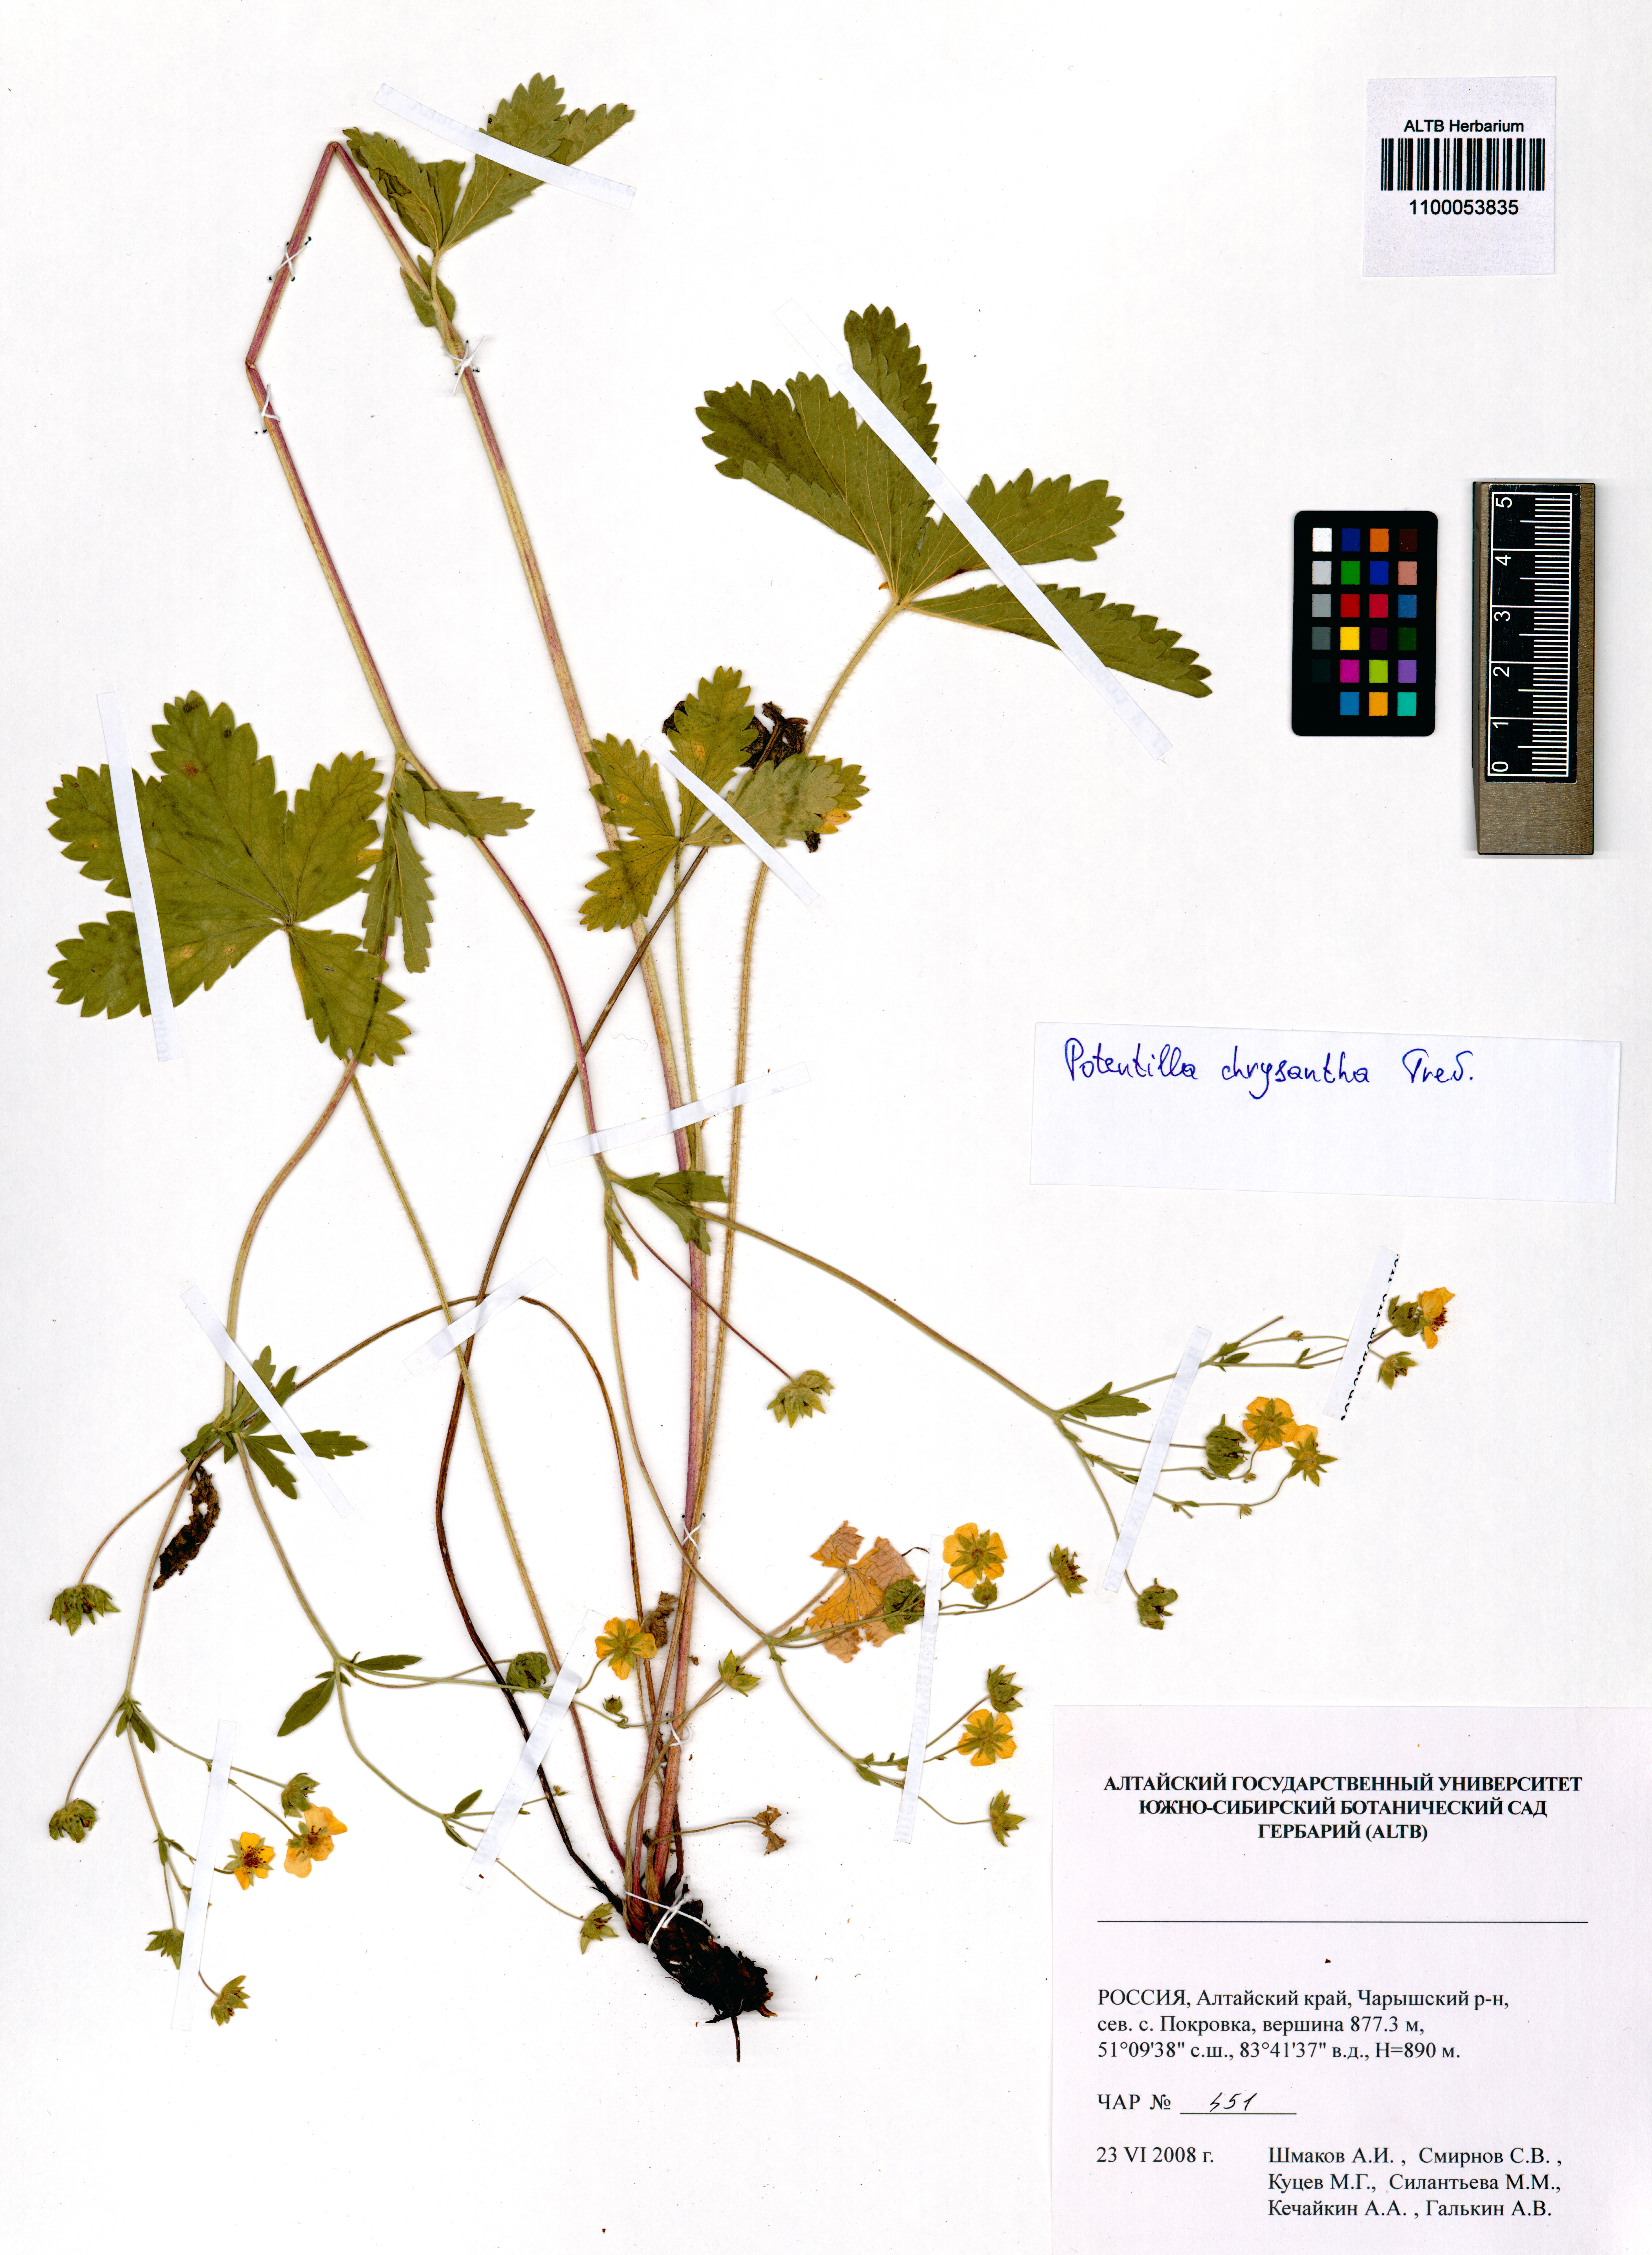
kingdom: Plantae
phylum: Tracheophyta
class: Magnoliopsida
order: Rosales
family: Rosaceae
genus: Potentilla
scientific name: Potentilla chrysantha
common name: Thuringian cinquefoil
